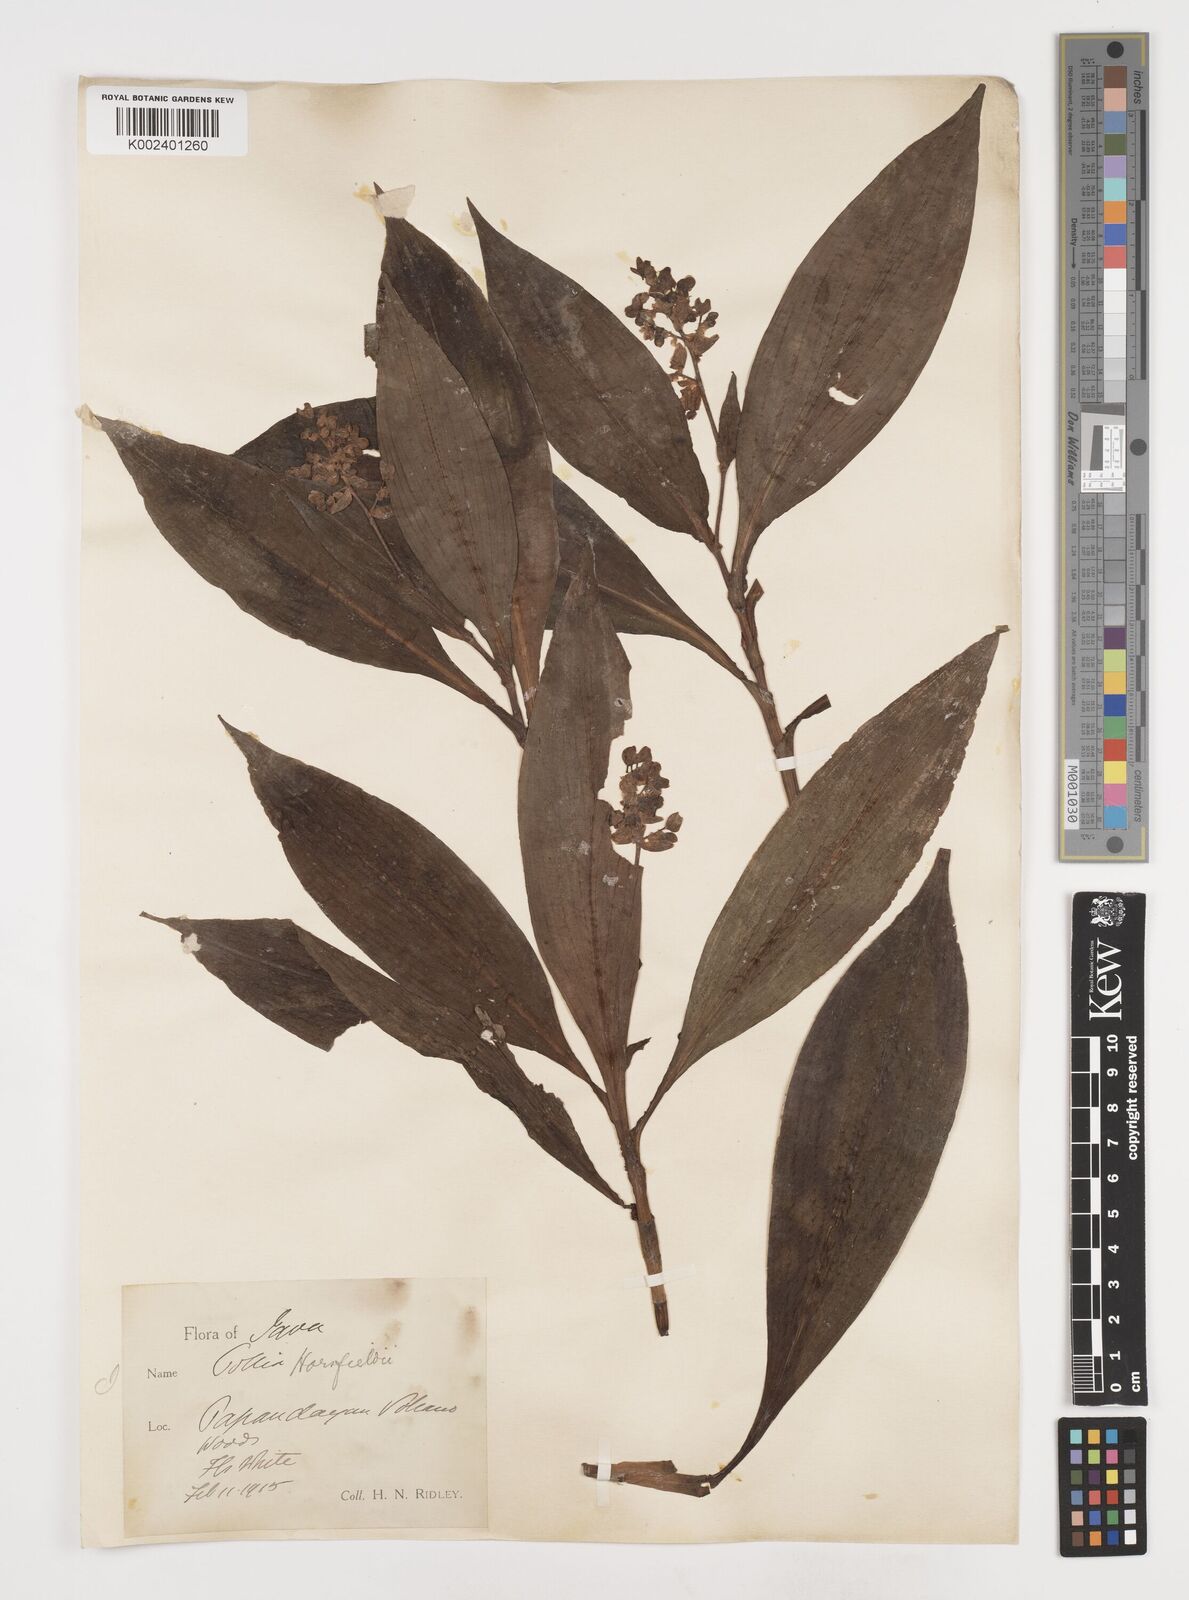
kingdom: Plantae
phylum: Tracheophyta
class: Liliopsida
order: Commelinales
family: Commelinaceae
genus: Pollia
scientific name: Pollia horsfieldii
